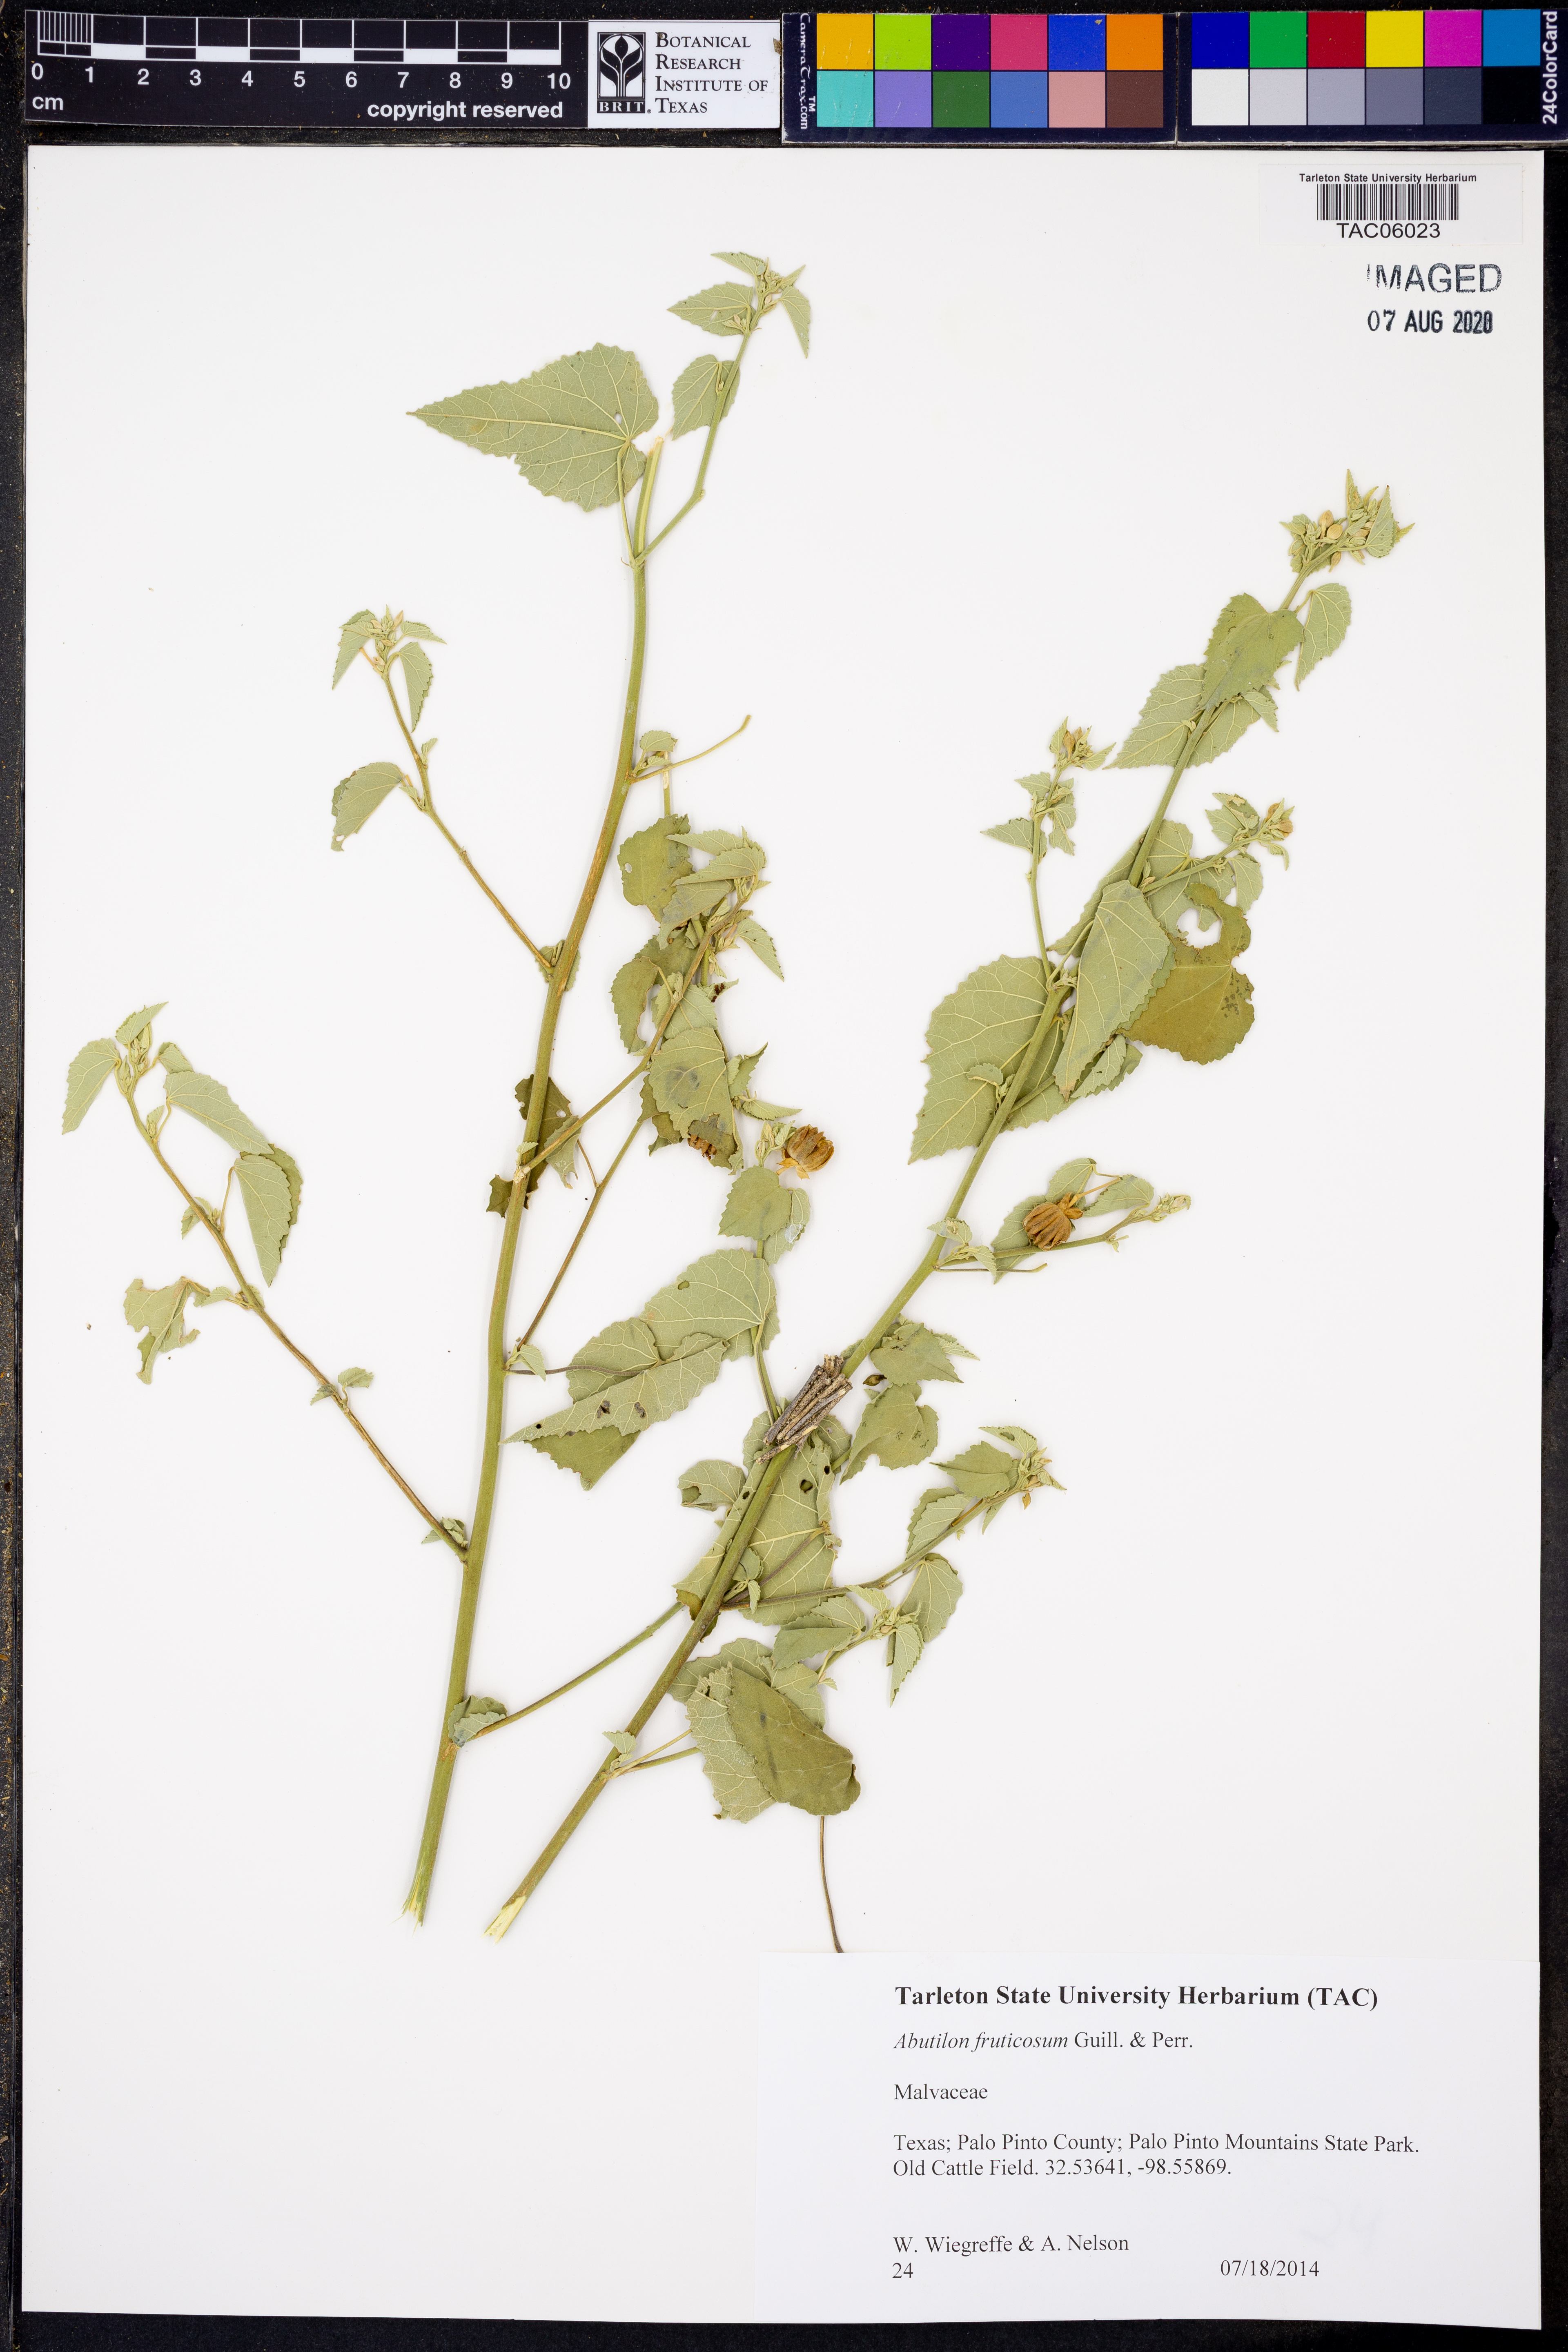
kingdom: Plantae
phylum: Tracheophyta
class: Magnoliopsida
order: Malvales
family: Malvaceae
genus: Abutilon
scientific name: Abutilon fruticosum
